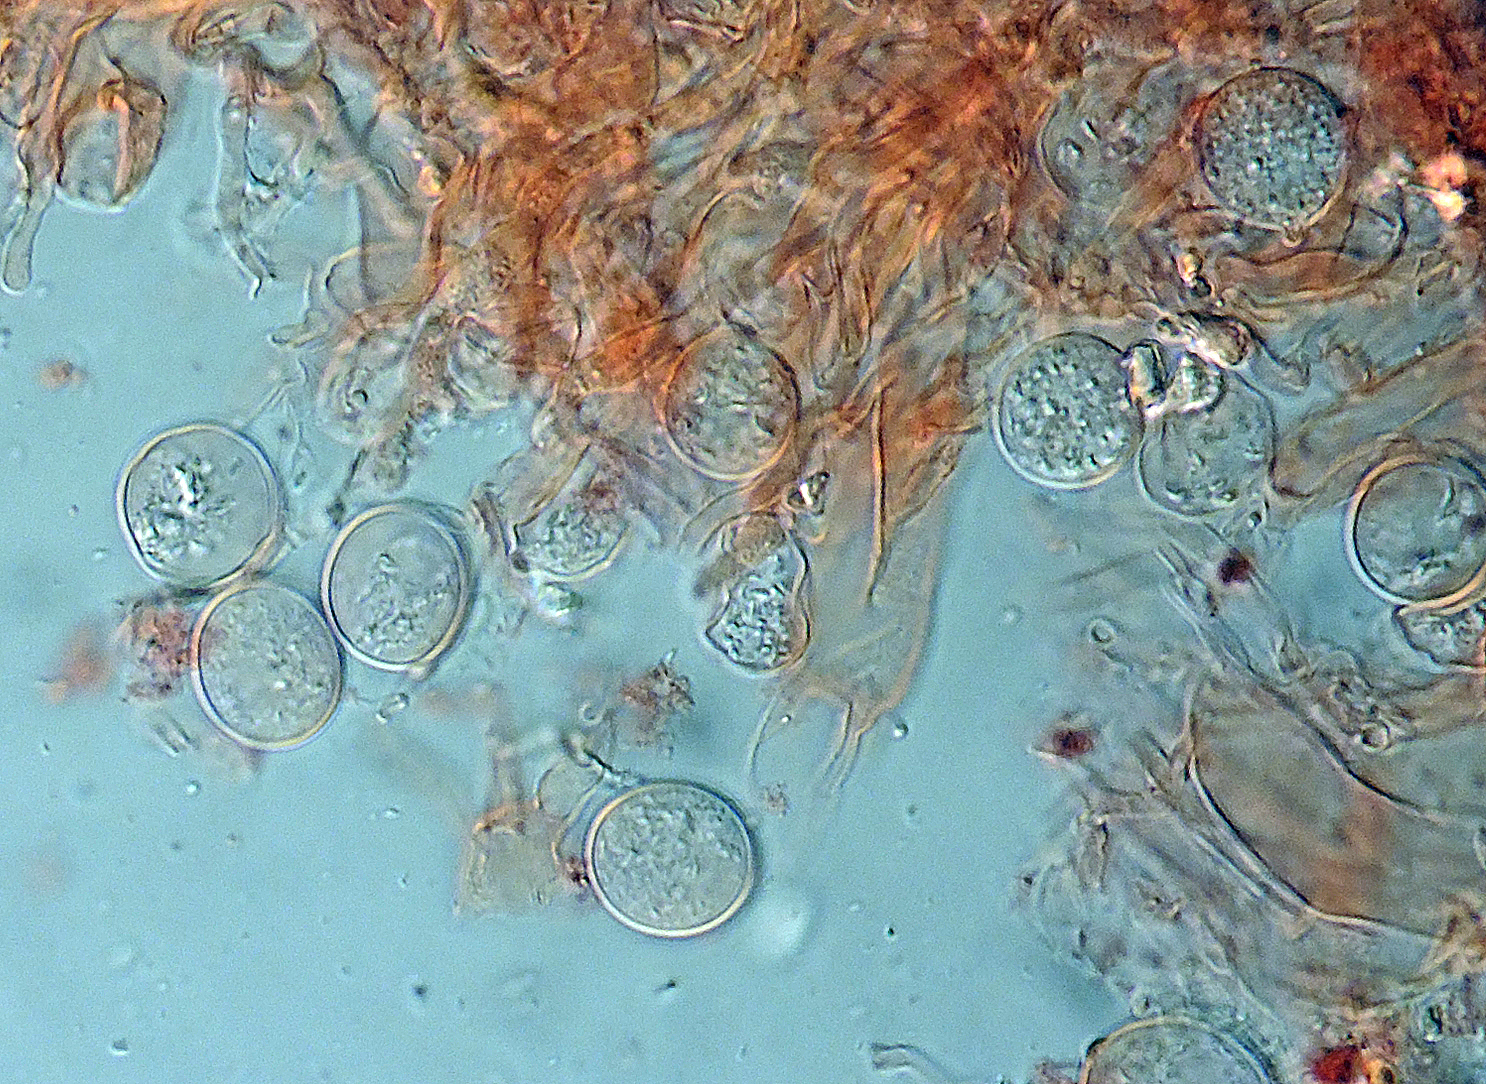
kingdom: Fungi
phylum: Basidiomycota
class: Agaricomycetes
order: Hymenochaetales
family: Rickenellaceae
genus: Globulicium
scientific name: Globulicium hiemale
